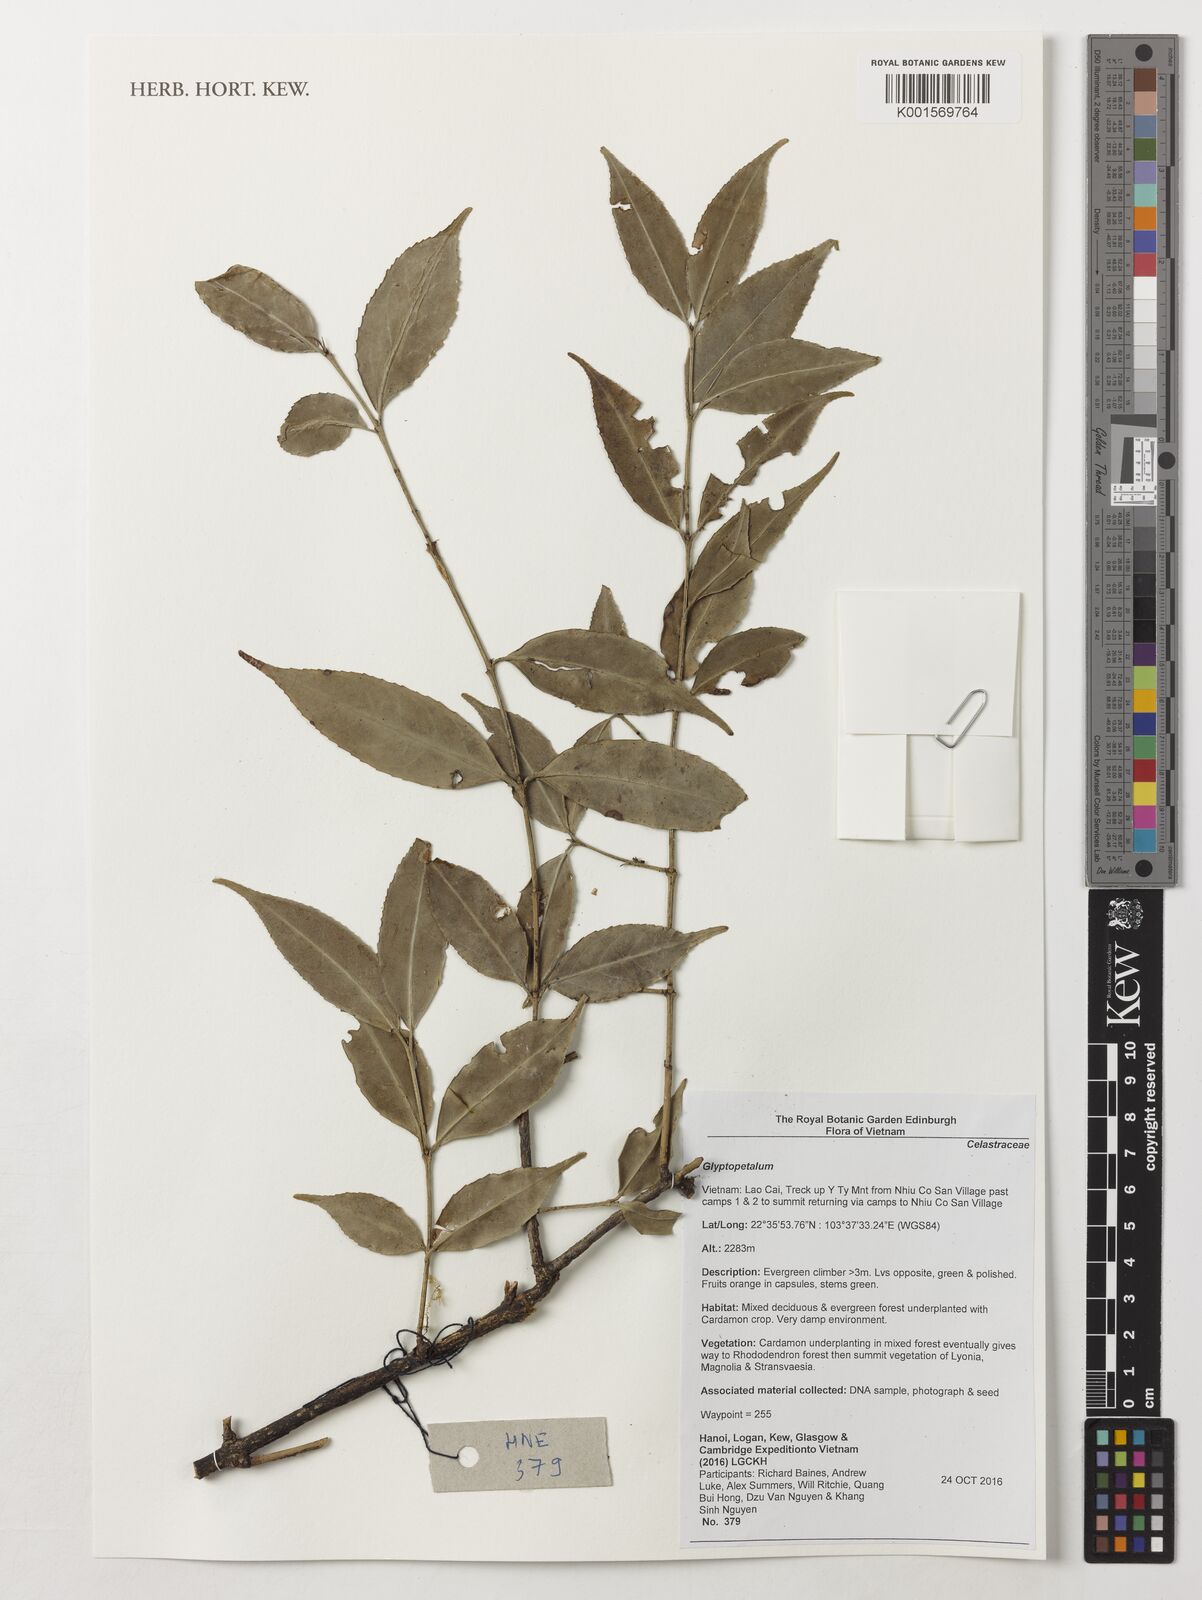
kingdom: Plantae
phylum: Tracheophyta
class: Magnoliopsida
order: Celastrales
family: Celastraceae
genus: Glyptopetalum
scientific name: Glyptopetalum
